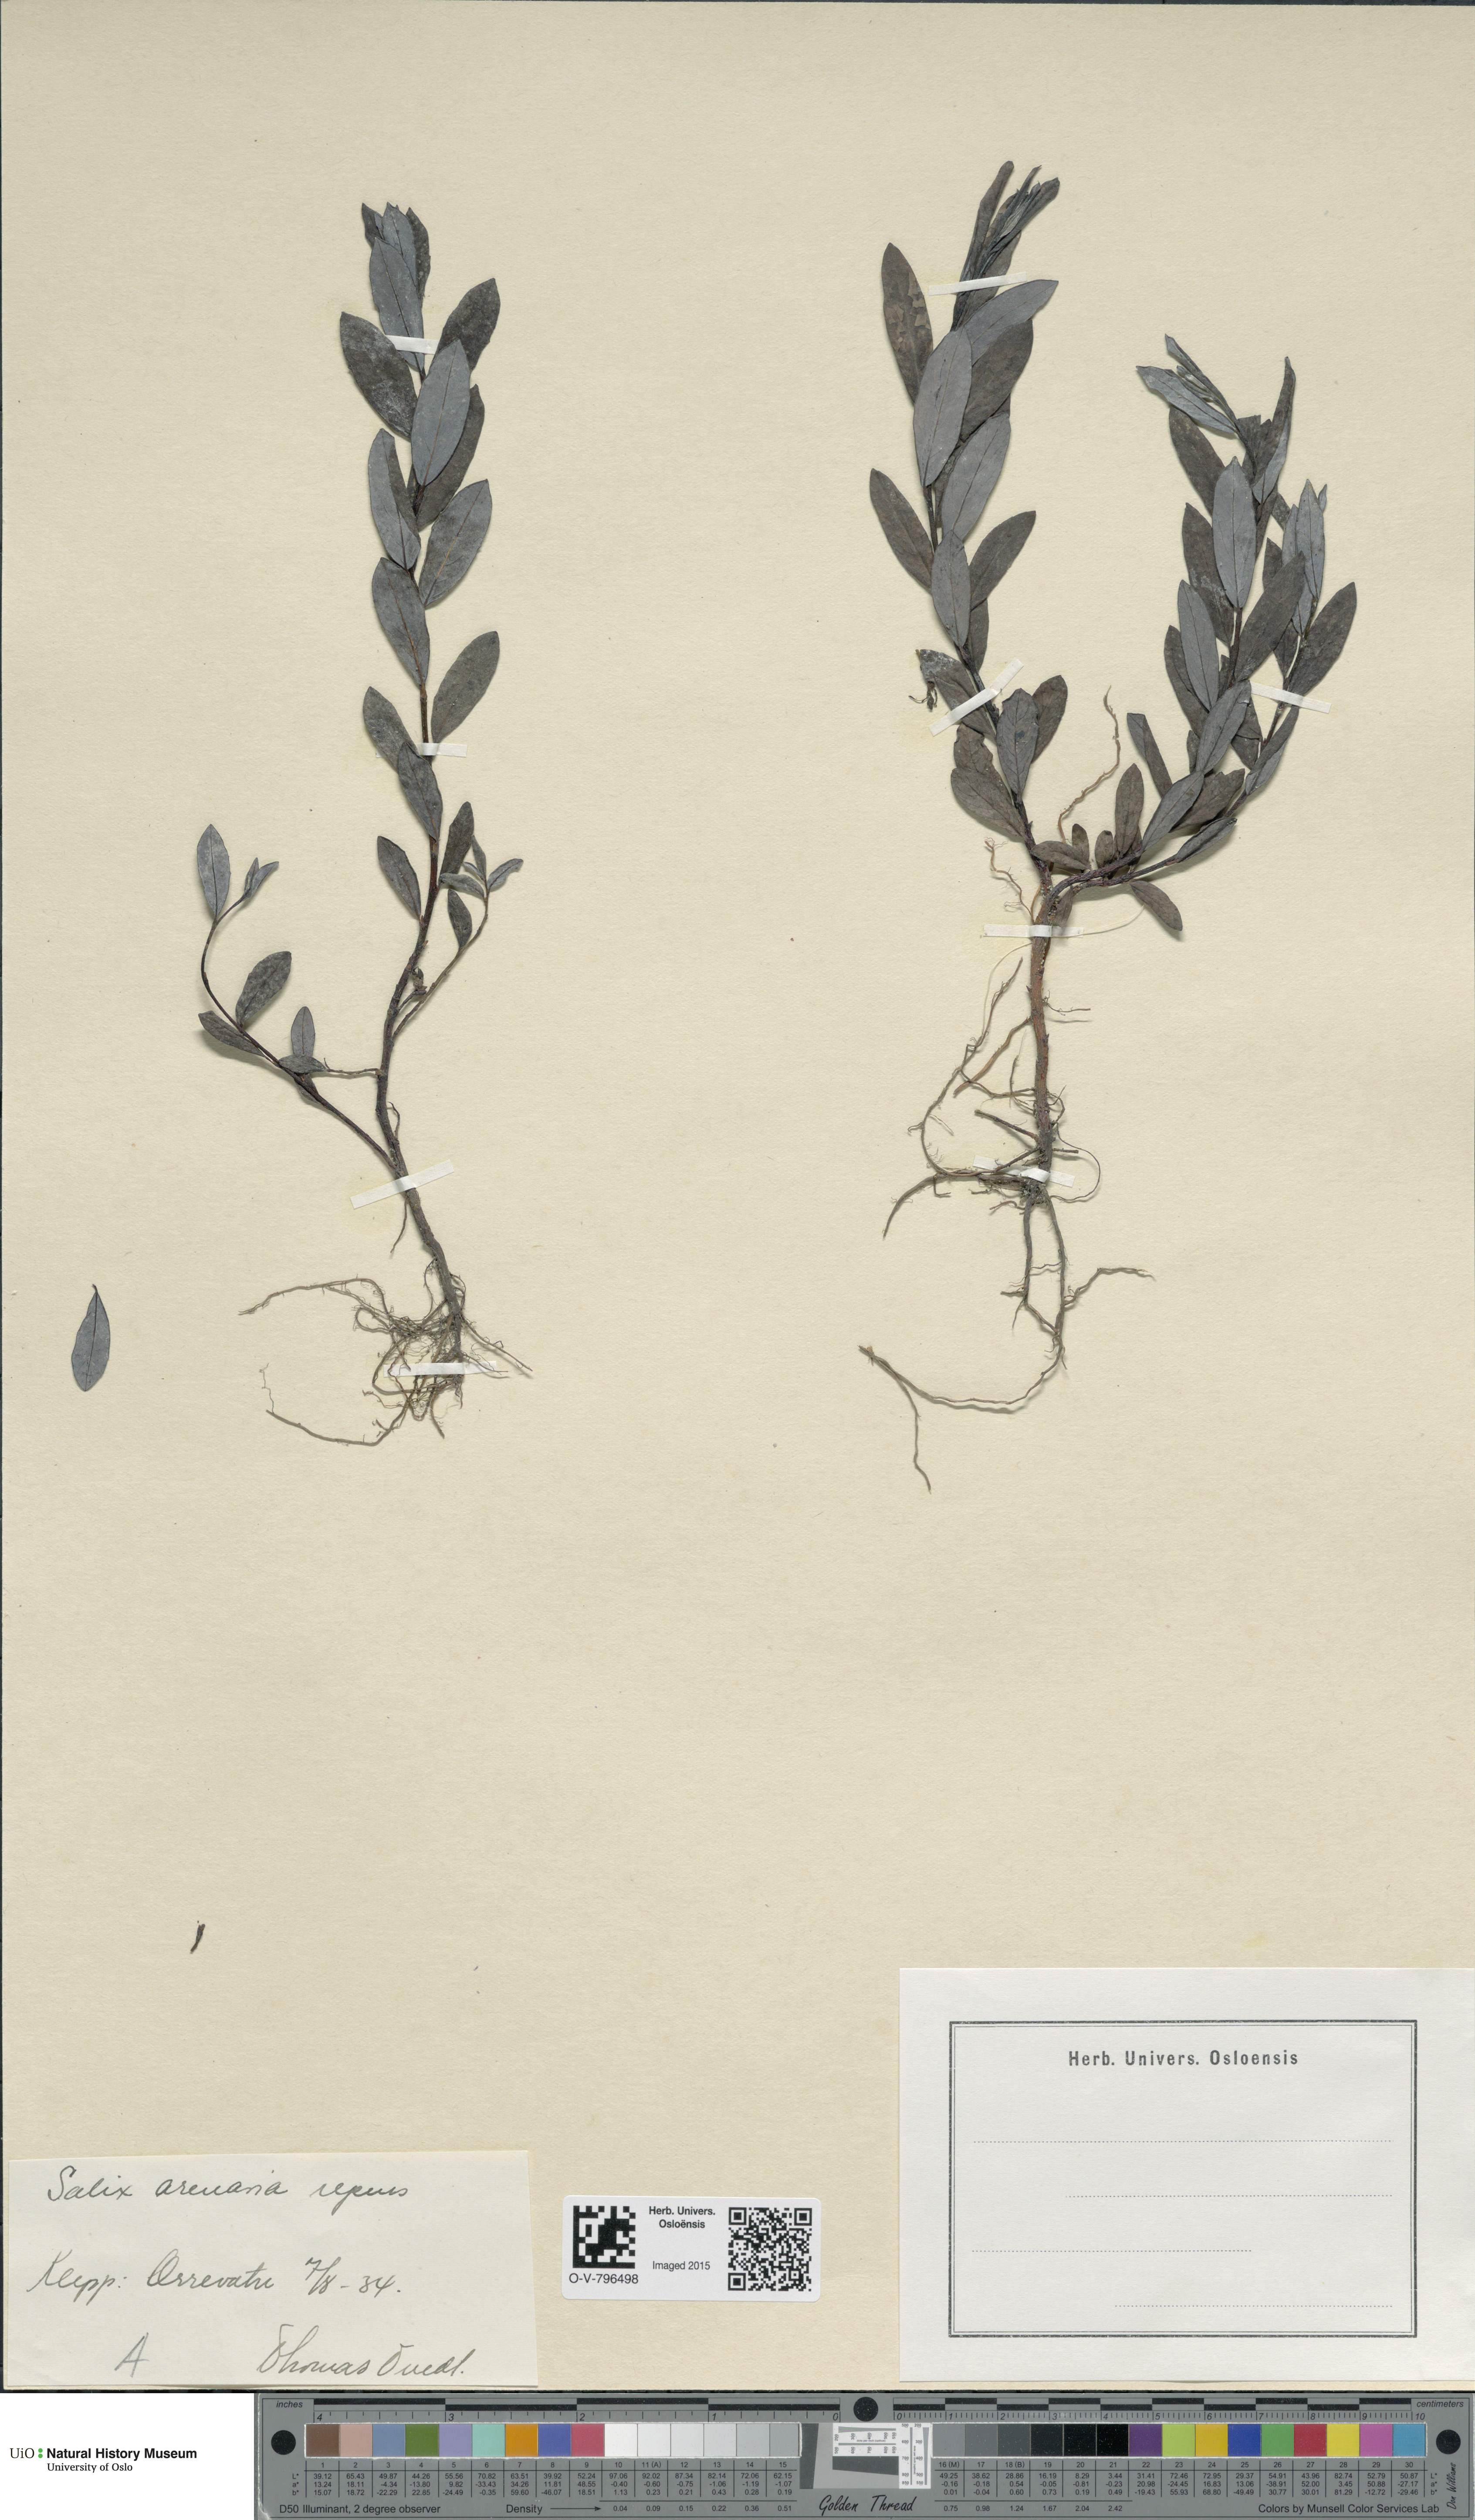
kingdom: Plantae
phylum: Tracheophyta
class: Magnoliopsida
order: Malpighiales
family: Salicaceae
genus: Salix
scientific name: Salix
